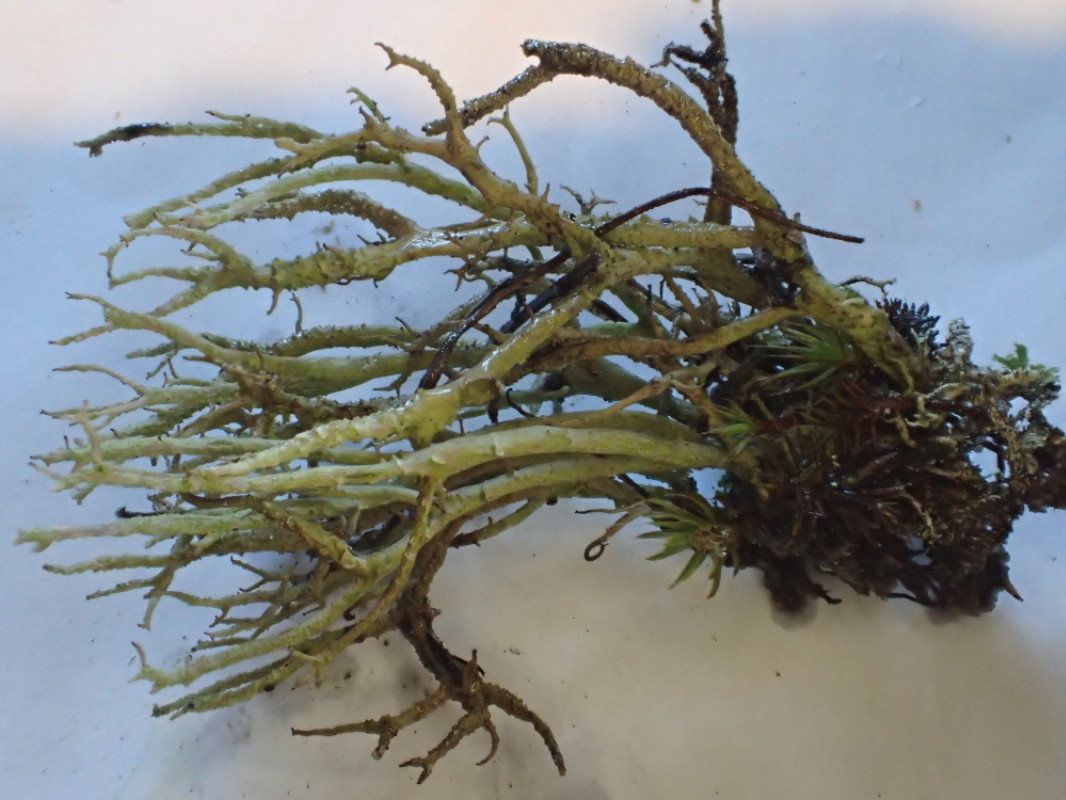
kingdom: Fungi
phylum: Ascomycota
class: Lecanoromycetes
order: Lecanorales
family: Cladoniaceae
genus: Cladonia
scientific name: Cladonia scabriuscula
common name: ru bægerlav
